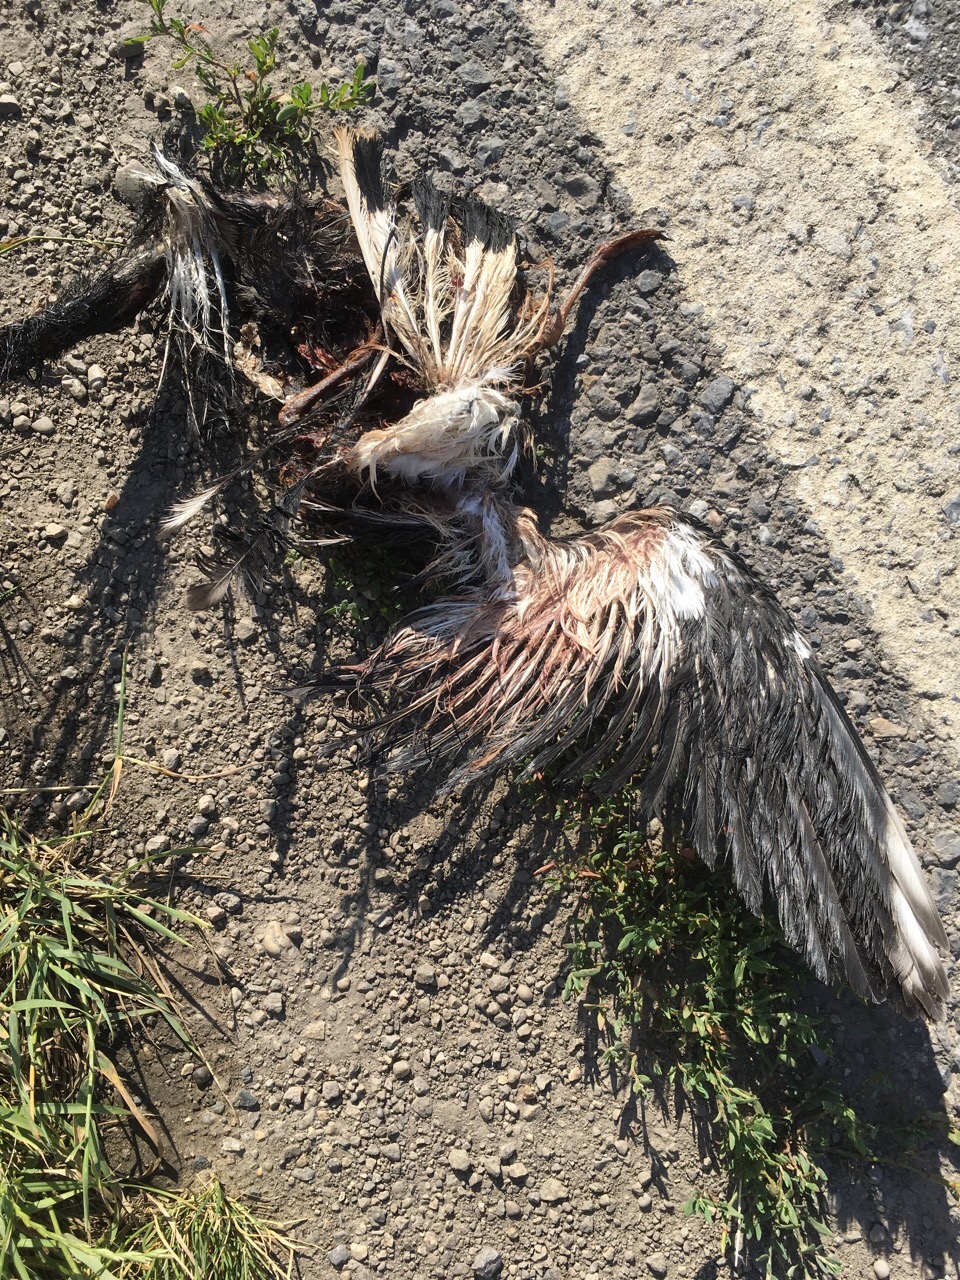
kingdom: Animalia
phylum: Chordata
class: Aves
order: Charadriiformes
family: Charadriidae
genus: Vanellus
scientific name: Vanellus vanellus
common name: Northern lapwing
